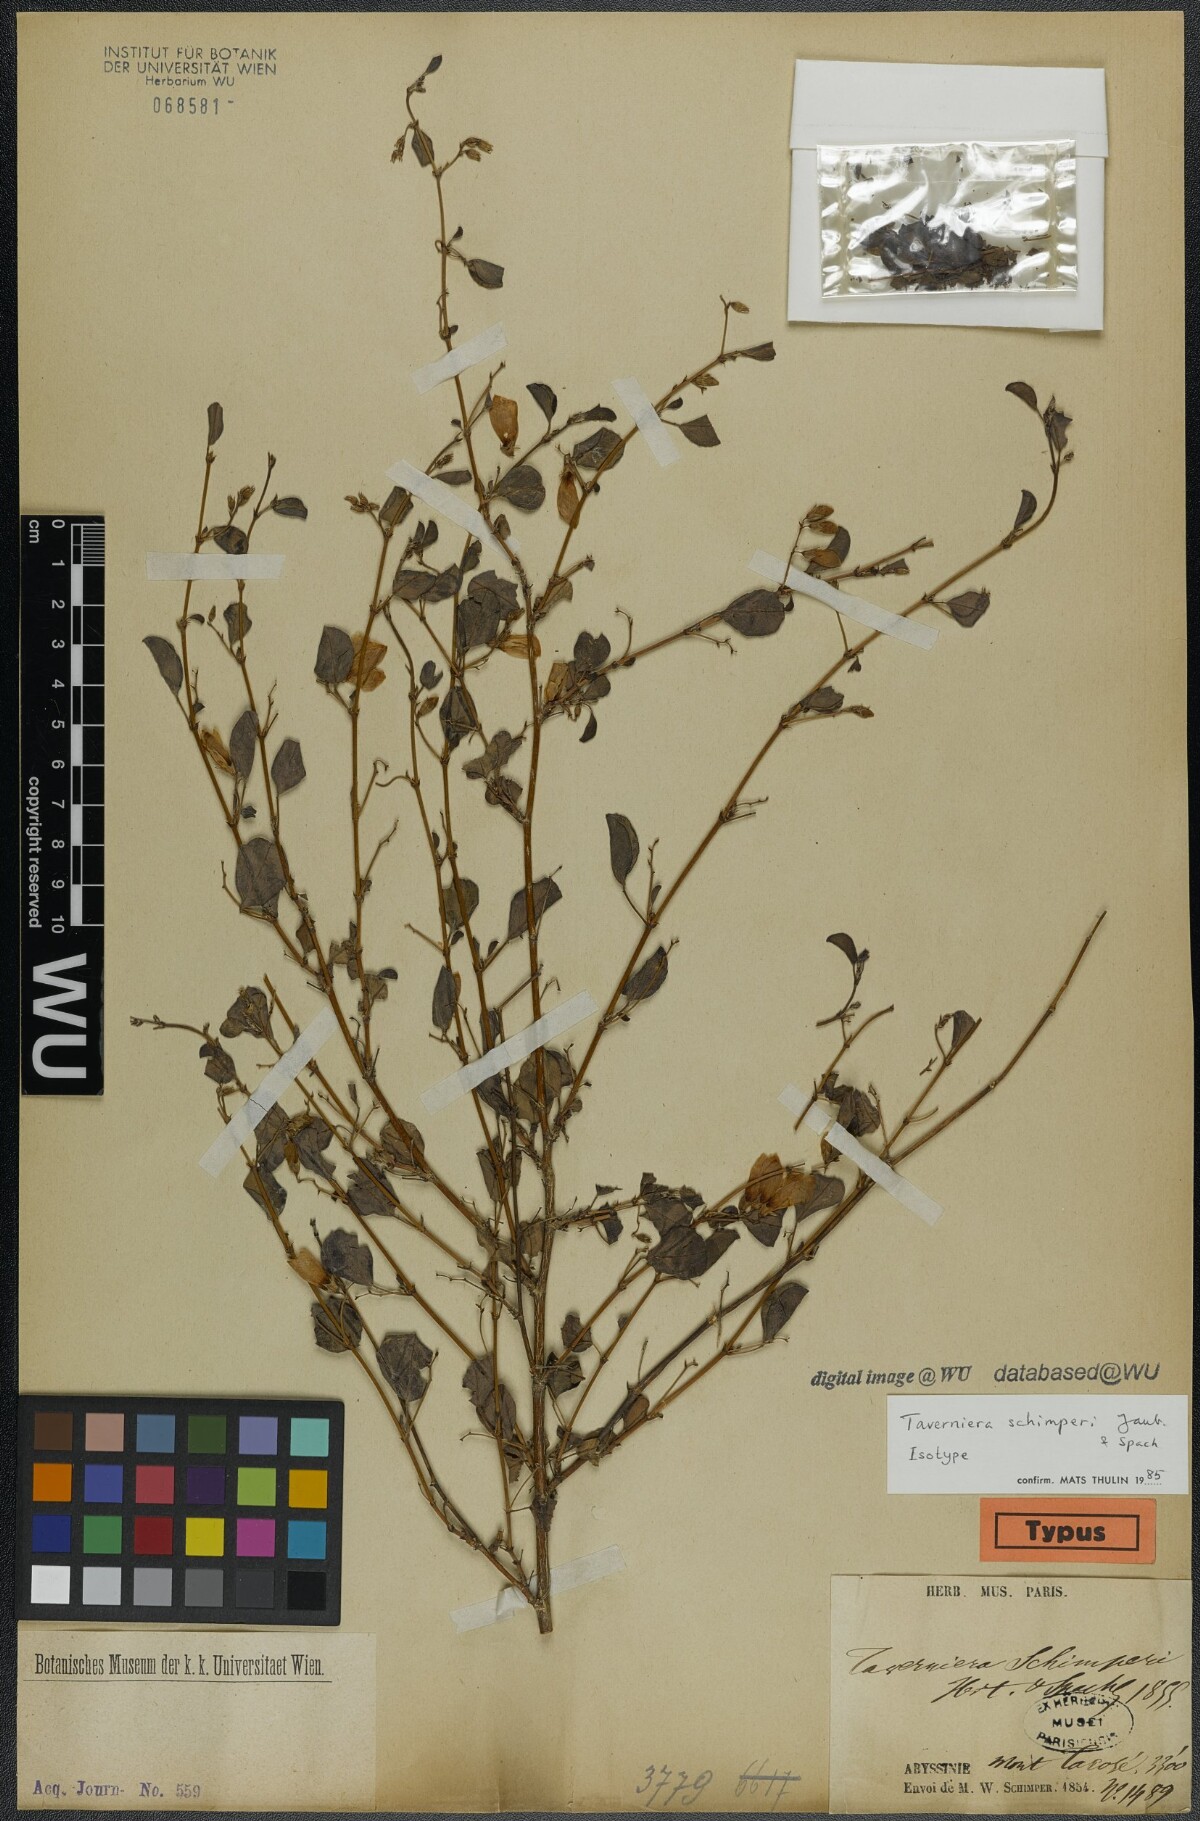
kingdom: Plantae
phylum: Tracheophyta
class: Magnoliopsida
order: Fabales
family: Fabaceae
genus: Taverniera
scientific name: Taverniera schimperi
